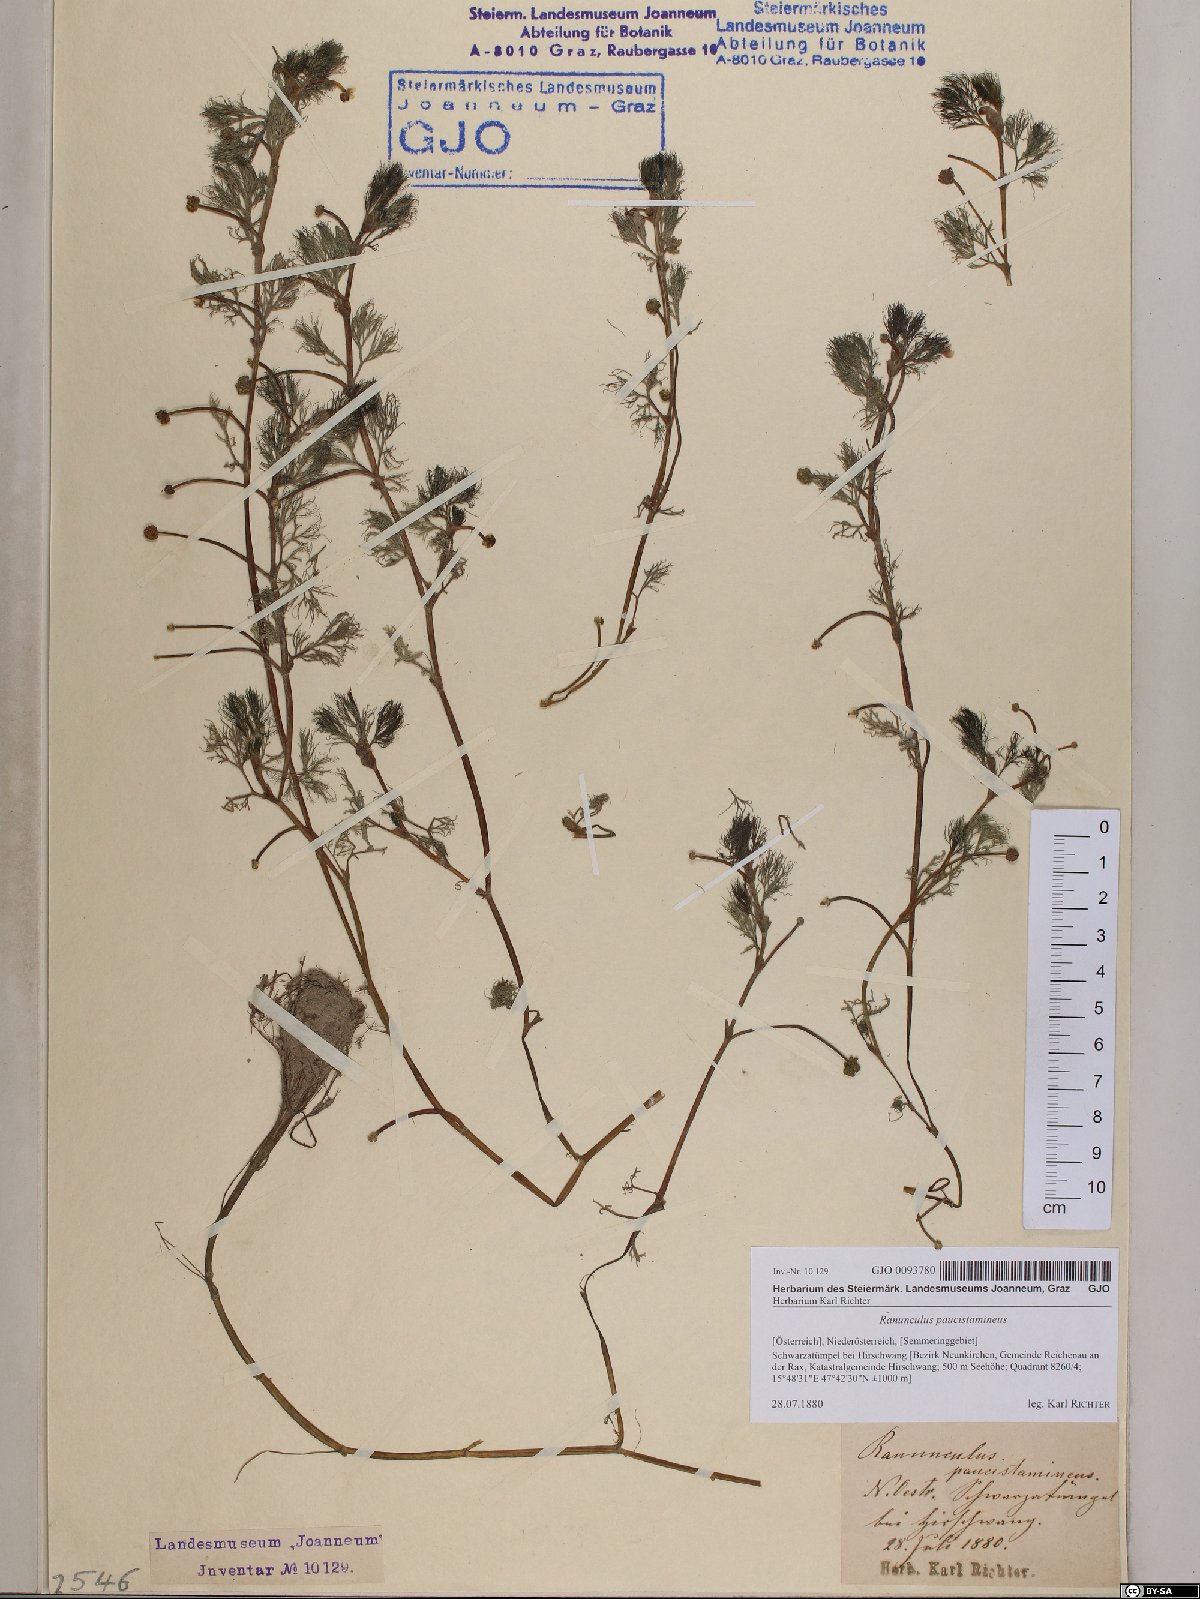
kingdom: Plantae
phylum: Tracheophyta
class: Magnoliopsida
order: Ranunculales
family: Ranunculaceae
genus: Ranunculus
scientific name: Ranunculus
